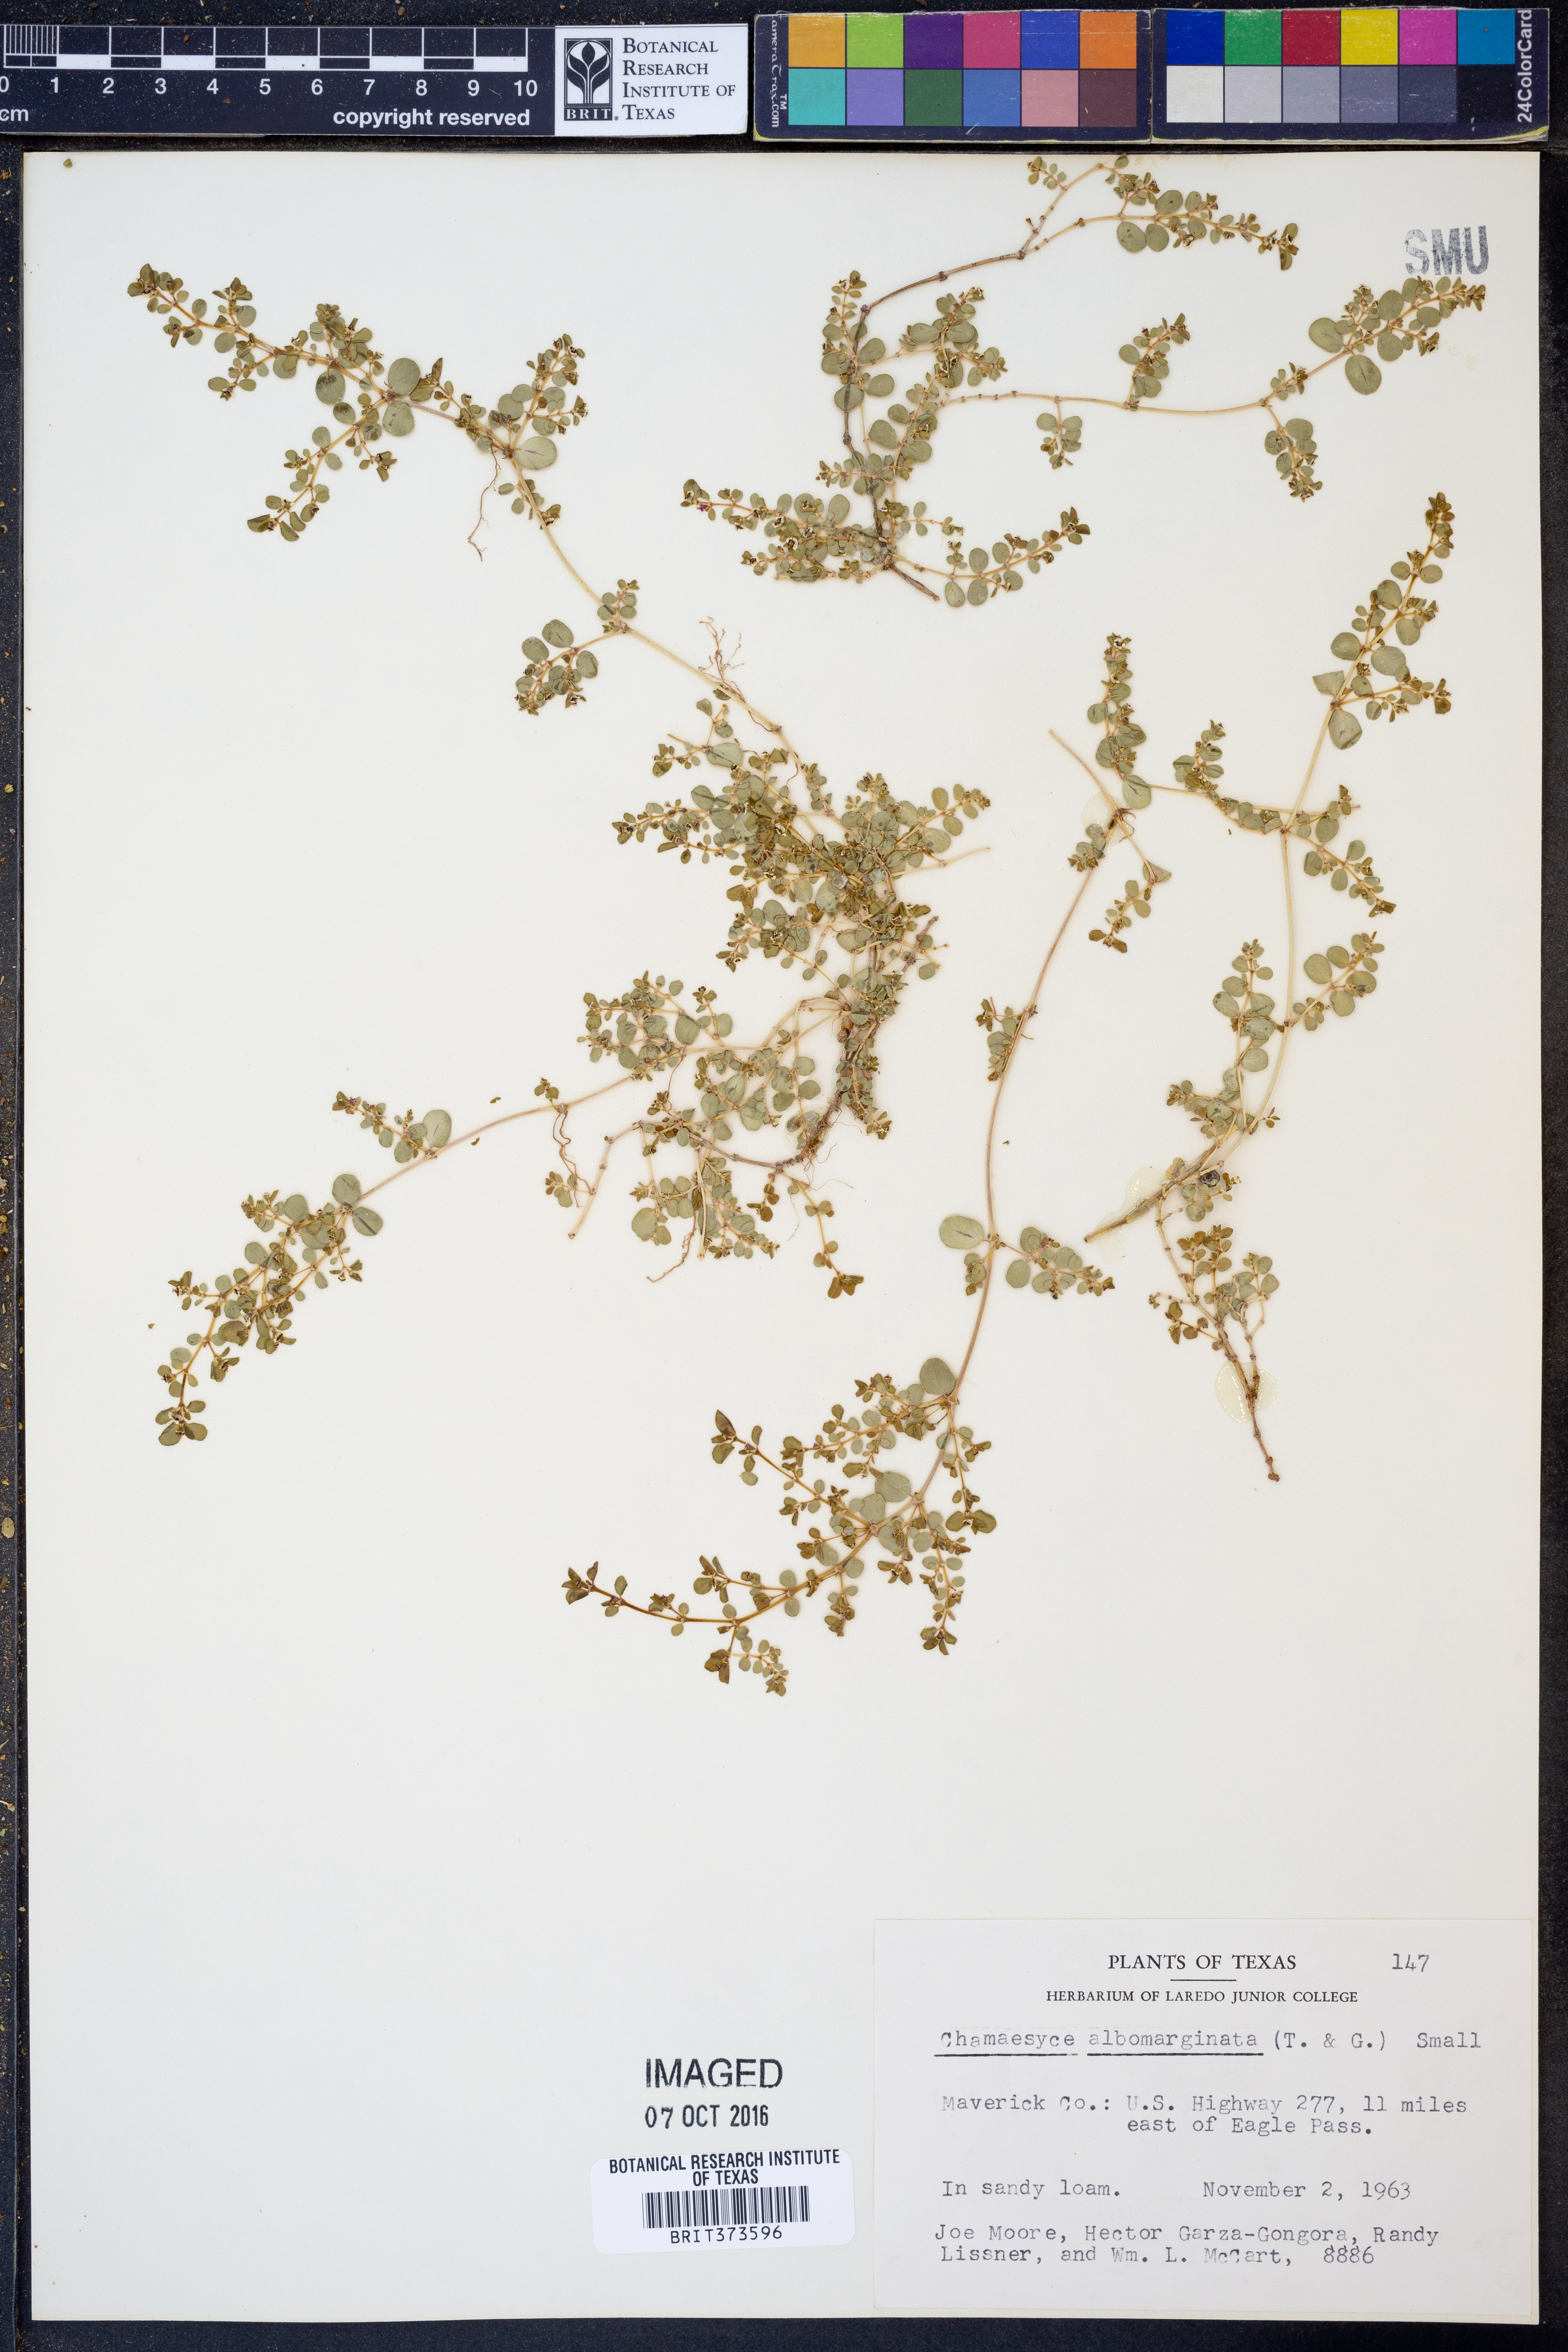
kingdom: Plantae
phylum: Tracheophyta
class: Magnoliopsida
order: Malpighiales
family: Euphorbiaceae
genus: Euphorbia
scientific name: Euphorbia albomarginata
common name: Whitemargin sandmat
